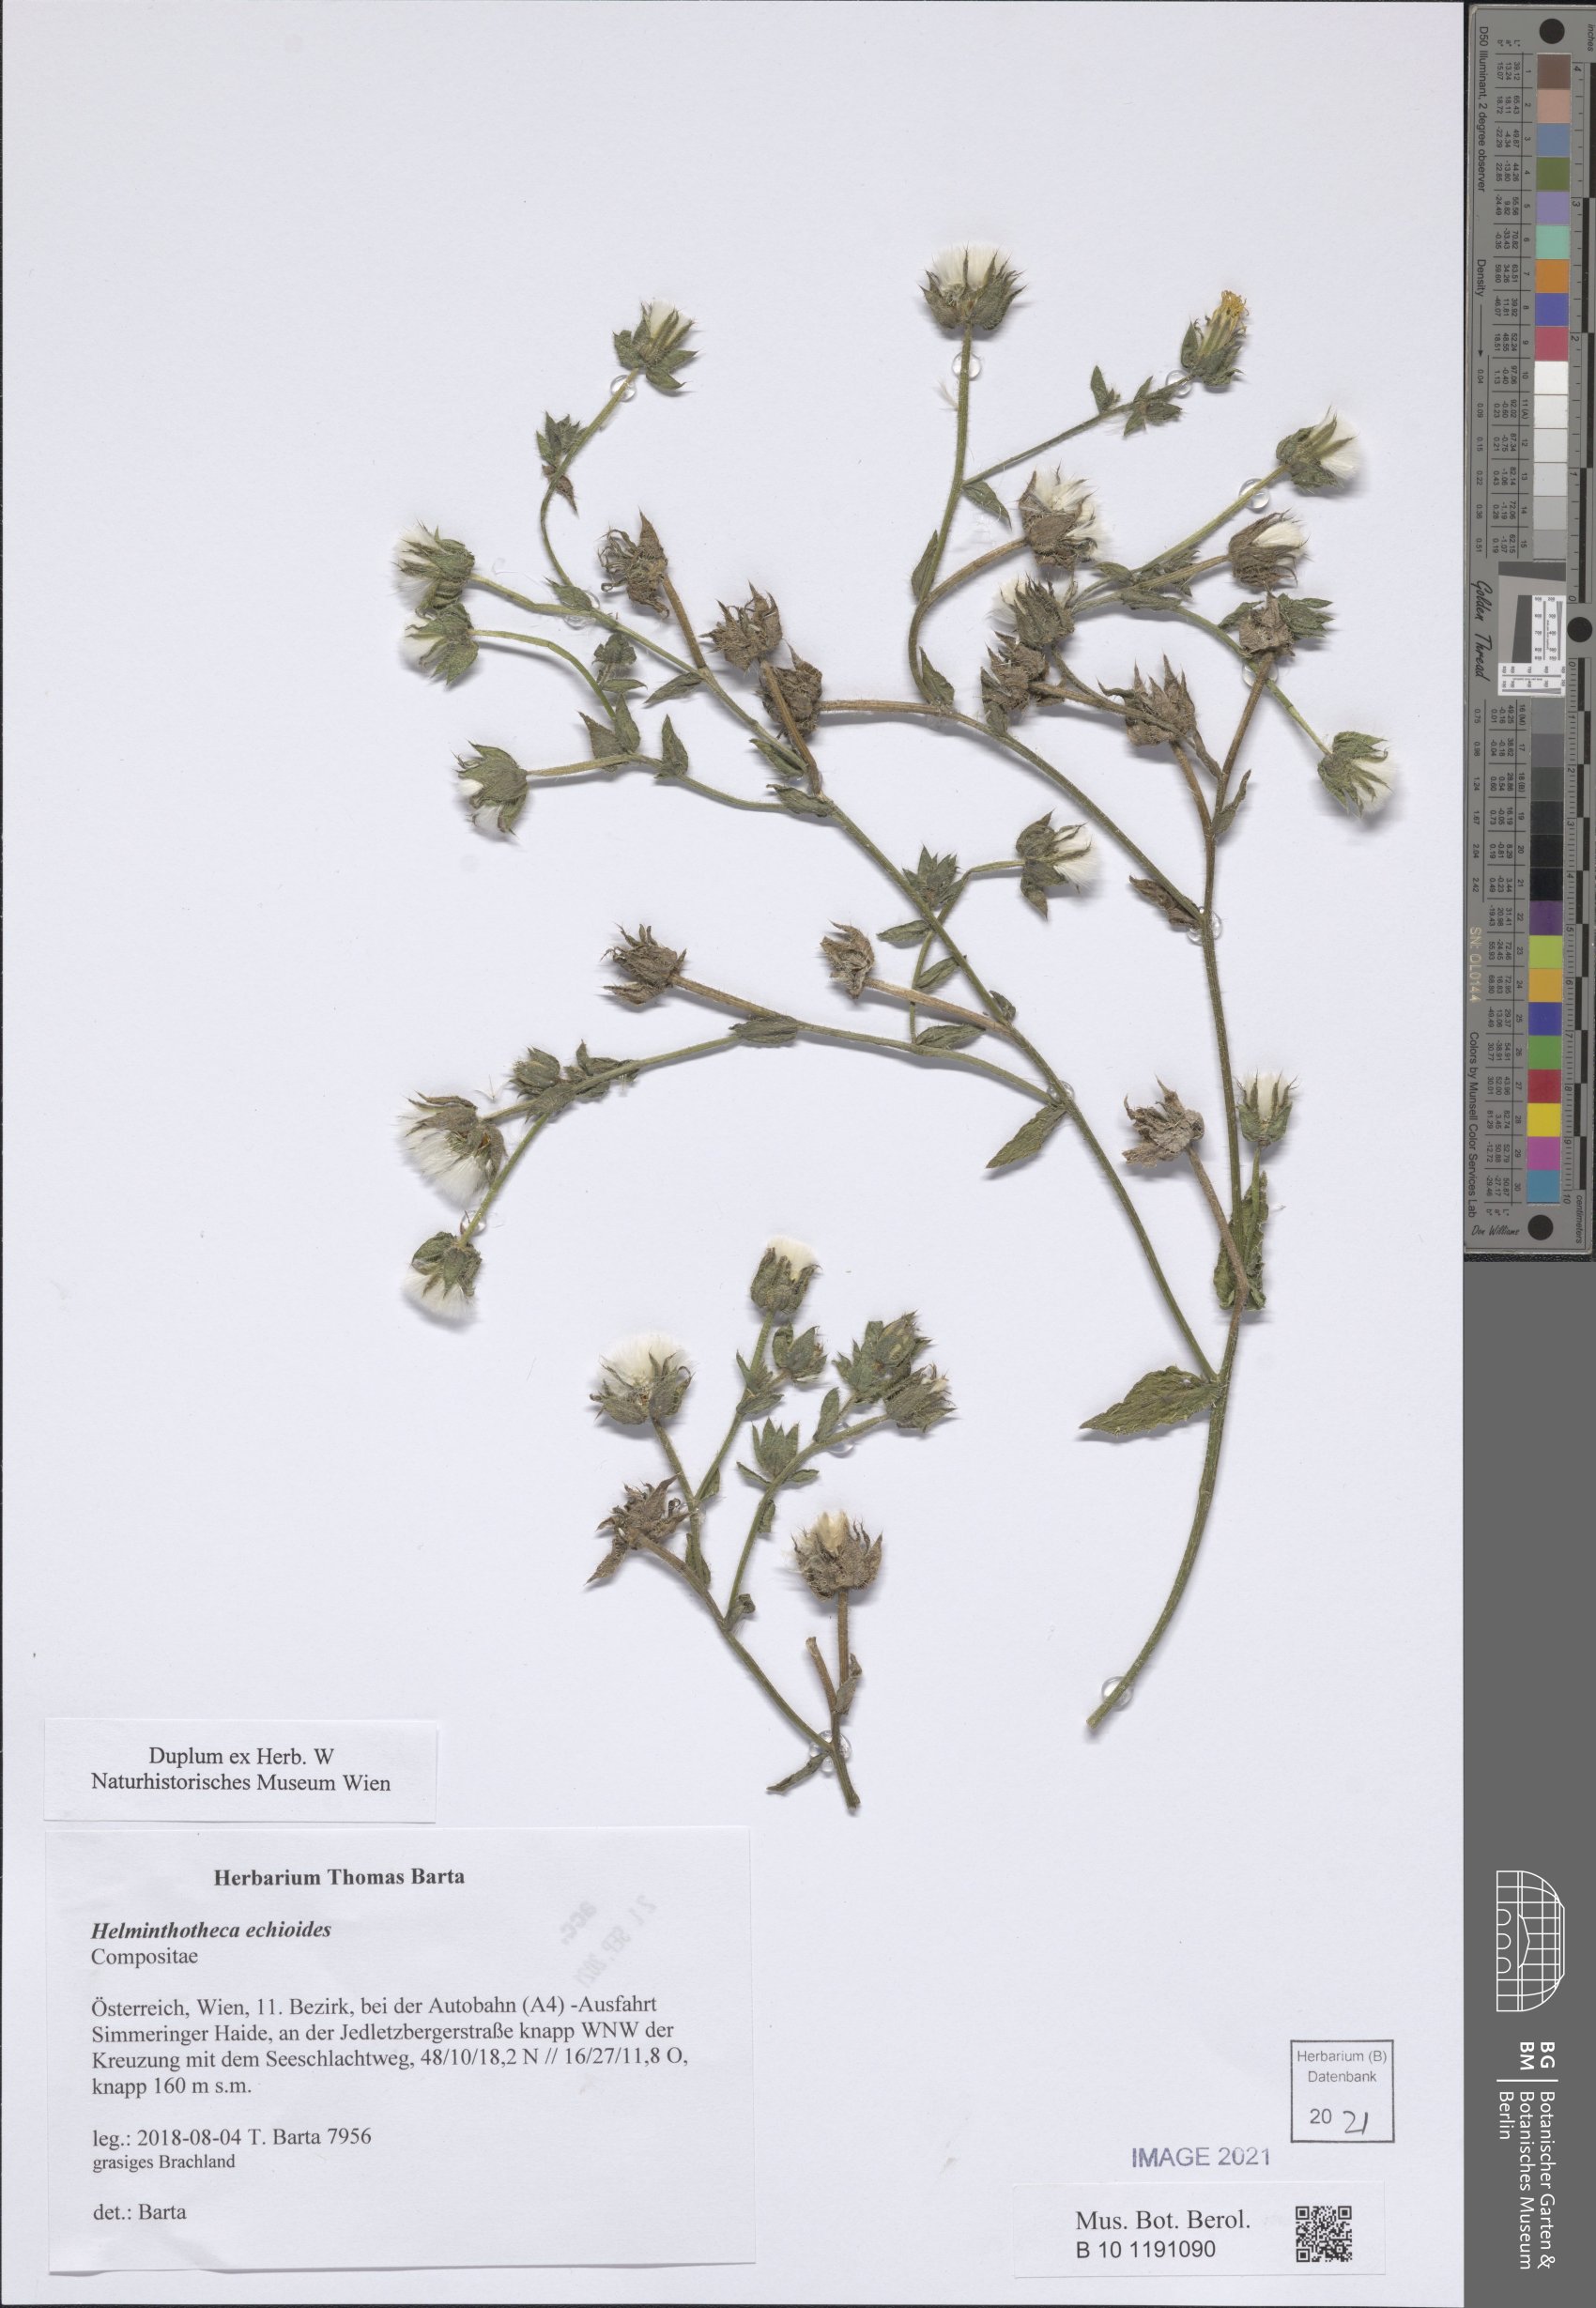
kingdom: Plantae
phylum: Tracheophyta
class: Magnoliopsida
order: Asterales
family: Asteraceae
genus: Helminthotheca
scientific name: Helminthotheca echioides
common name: Ox-tongue
